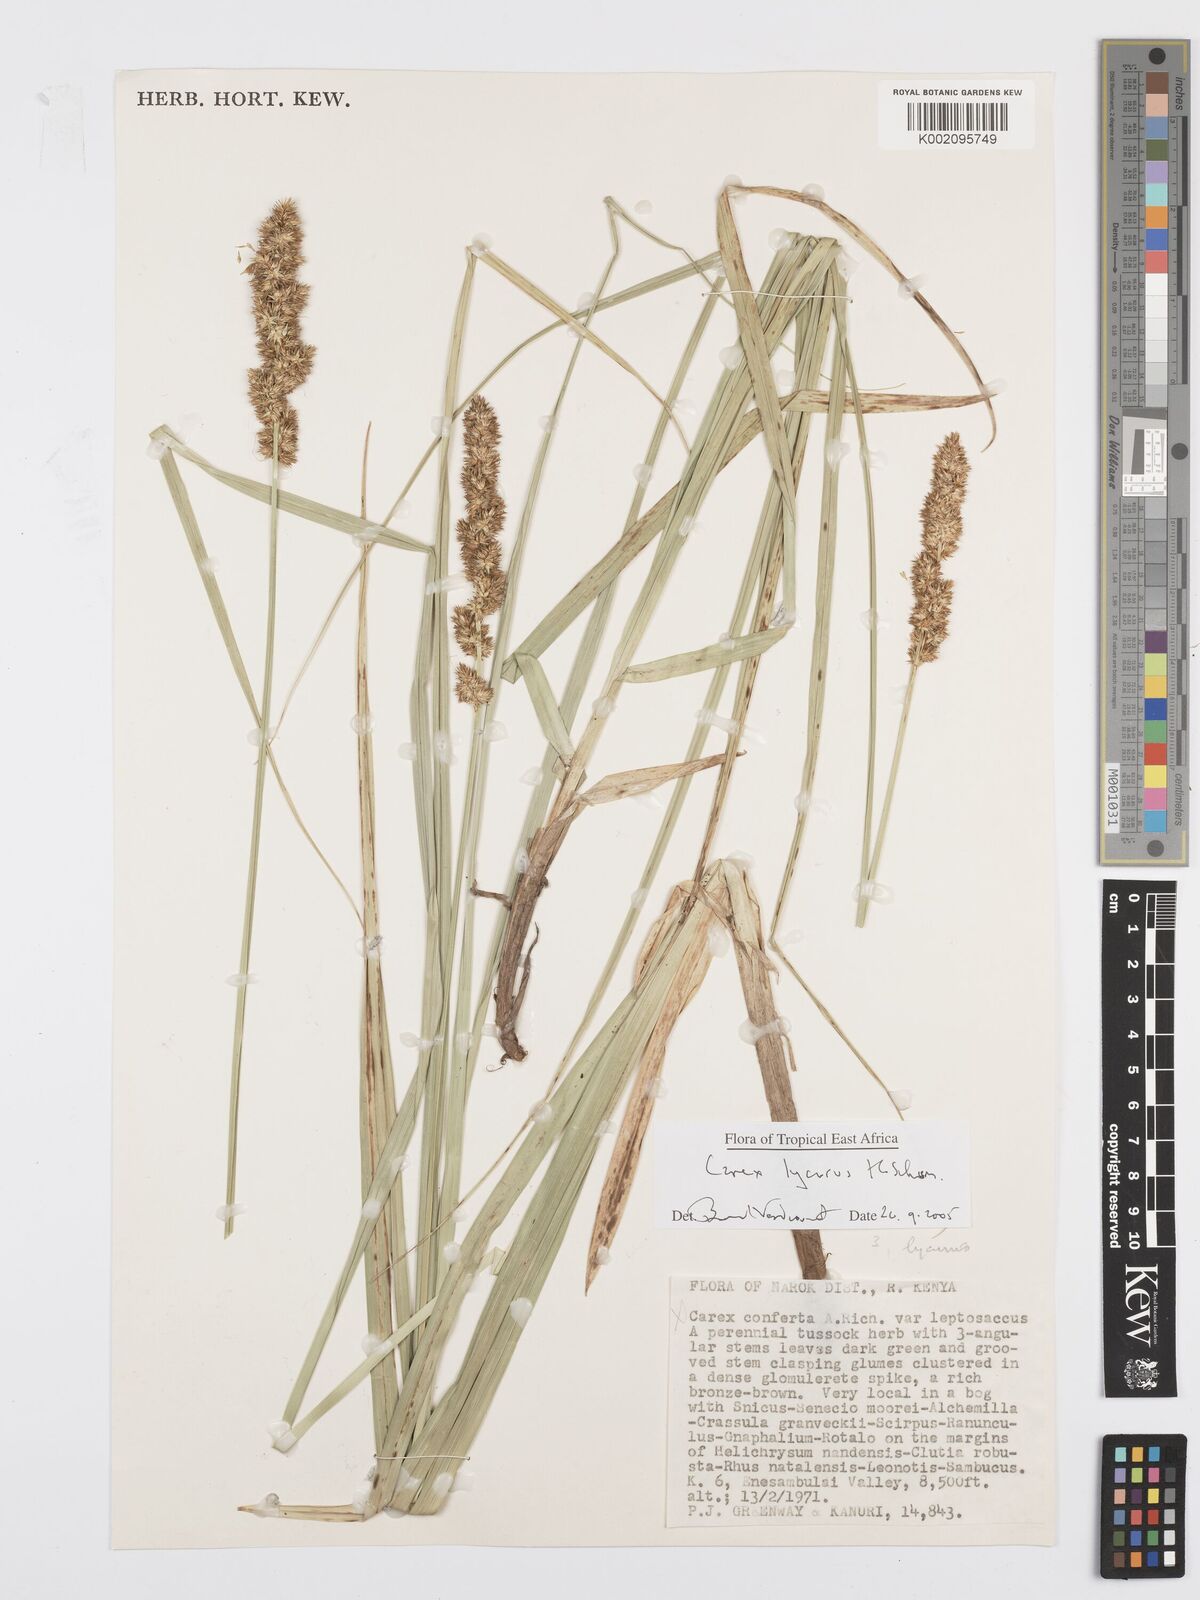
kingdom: Plantae
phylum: Tracheophyta
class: Liliopsida
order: Poales
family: Cyperaceae
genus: Carex
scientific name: Carex lycurus
